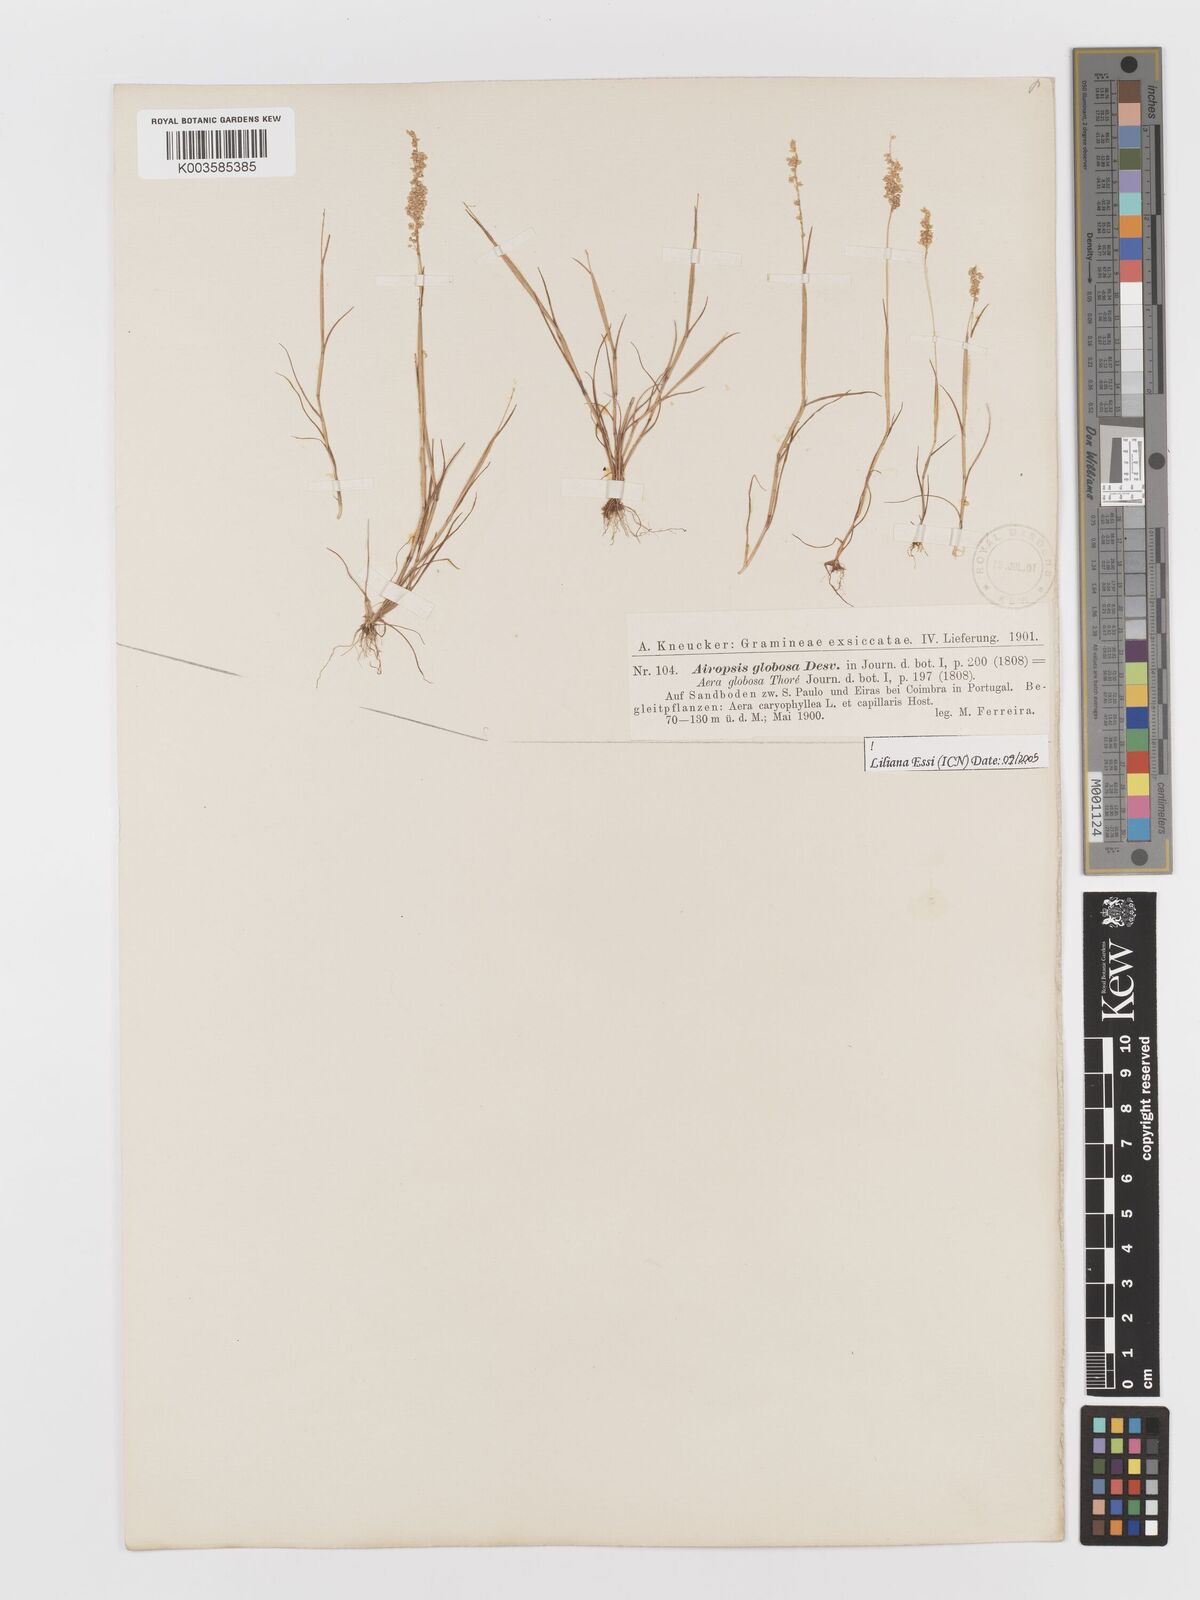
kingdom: Plantae
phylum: Tracheophyta
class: Liliopsida
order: Poales
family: Poaceae
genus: Airopsis
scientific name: Airopsis tenella
